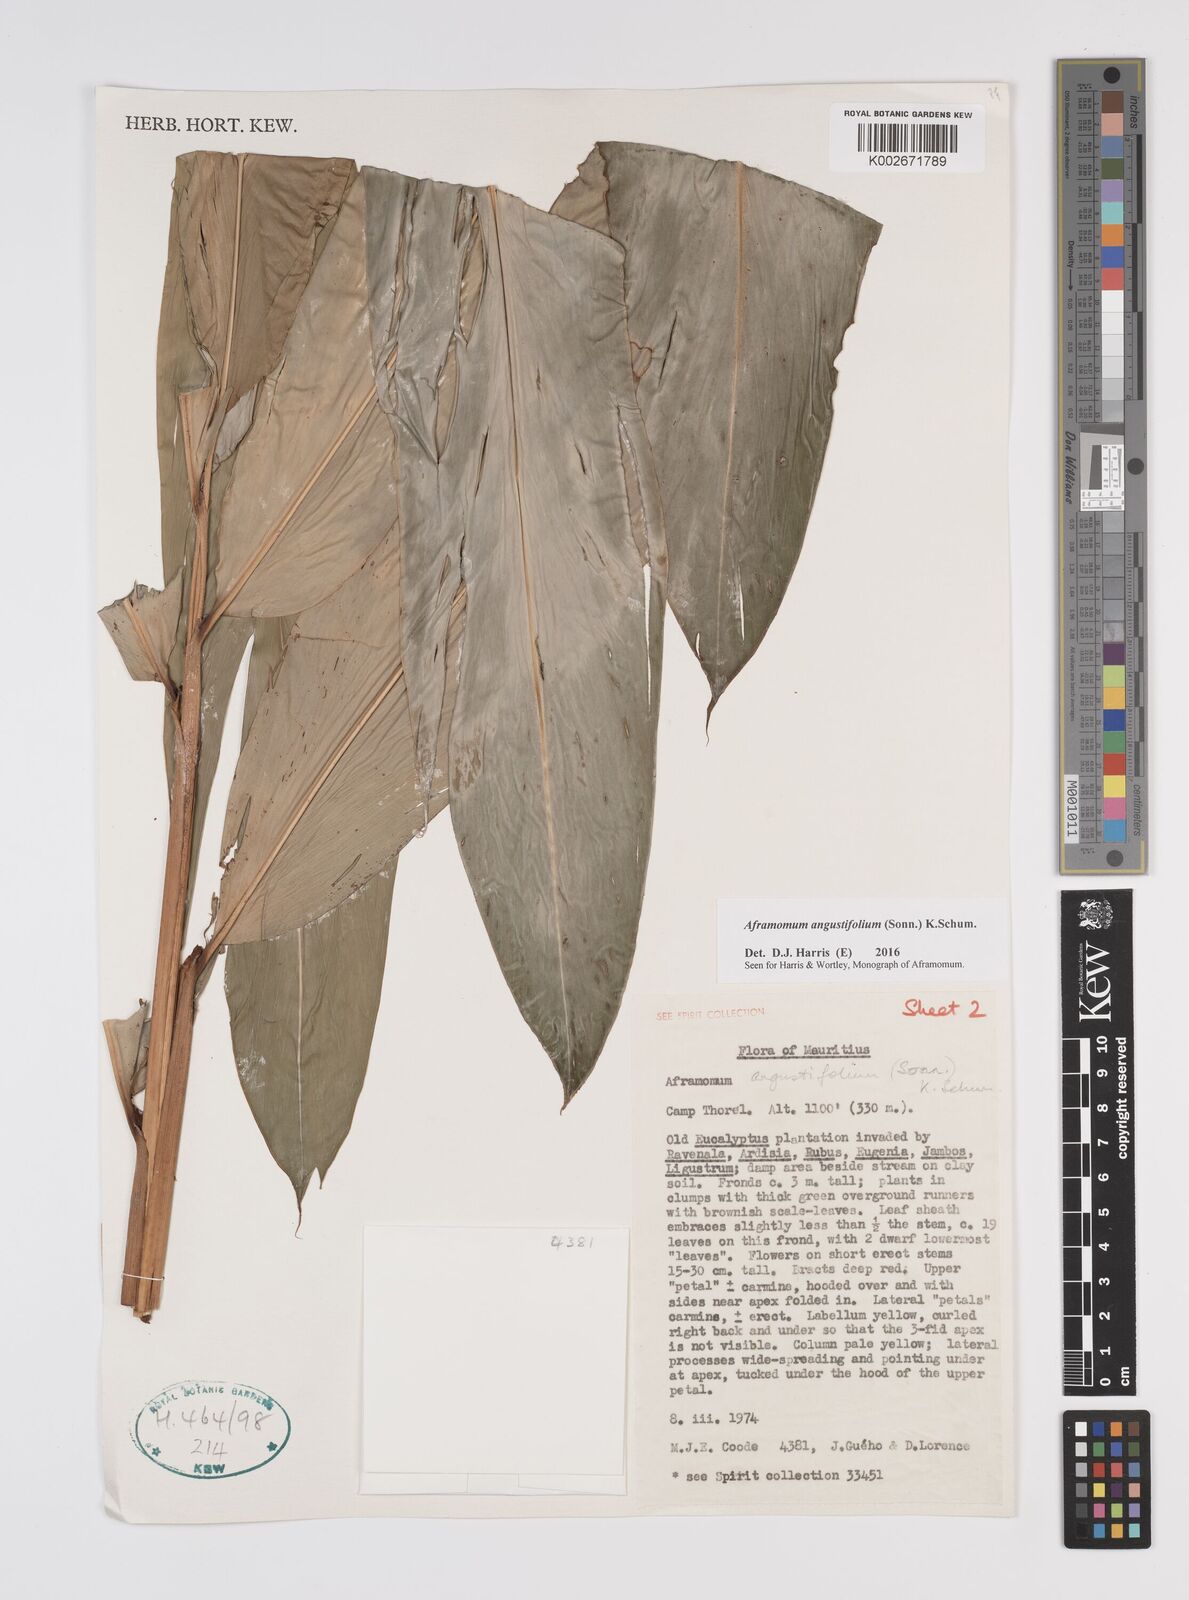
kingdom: Plantae
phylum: Tracheophyta
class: Liliopsida
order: Zingiberales
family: Zingiberaceae
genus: Aframomum
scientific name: Aframomum angustifolium
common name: Guinea grains
